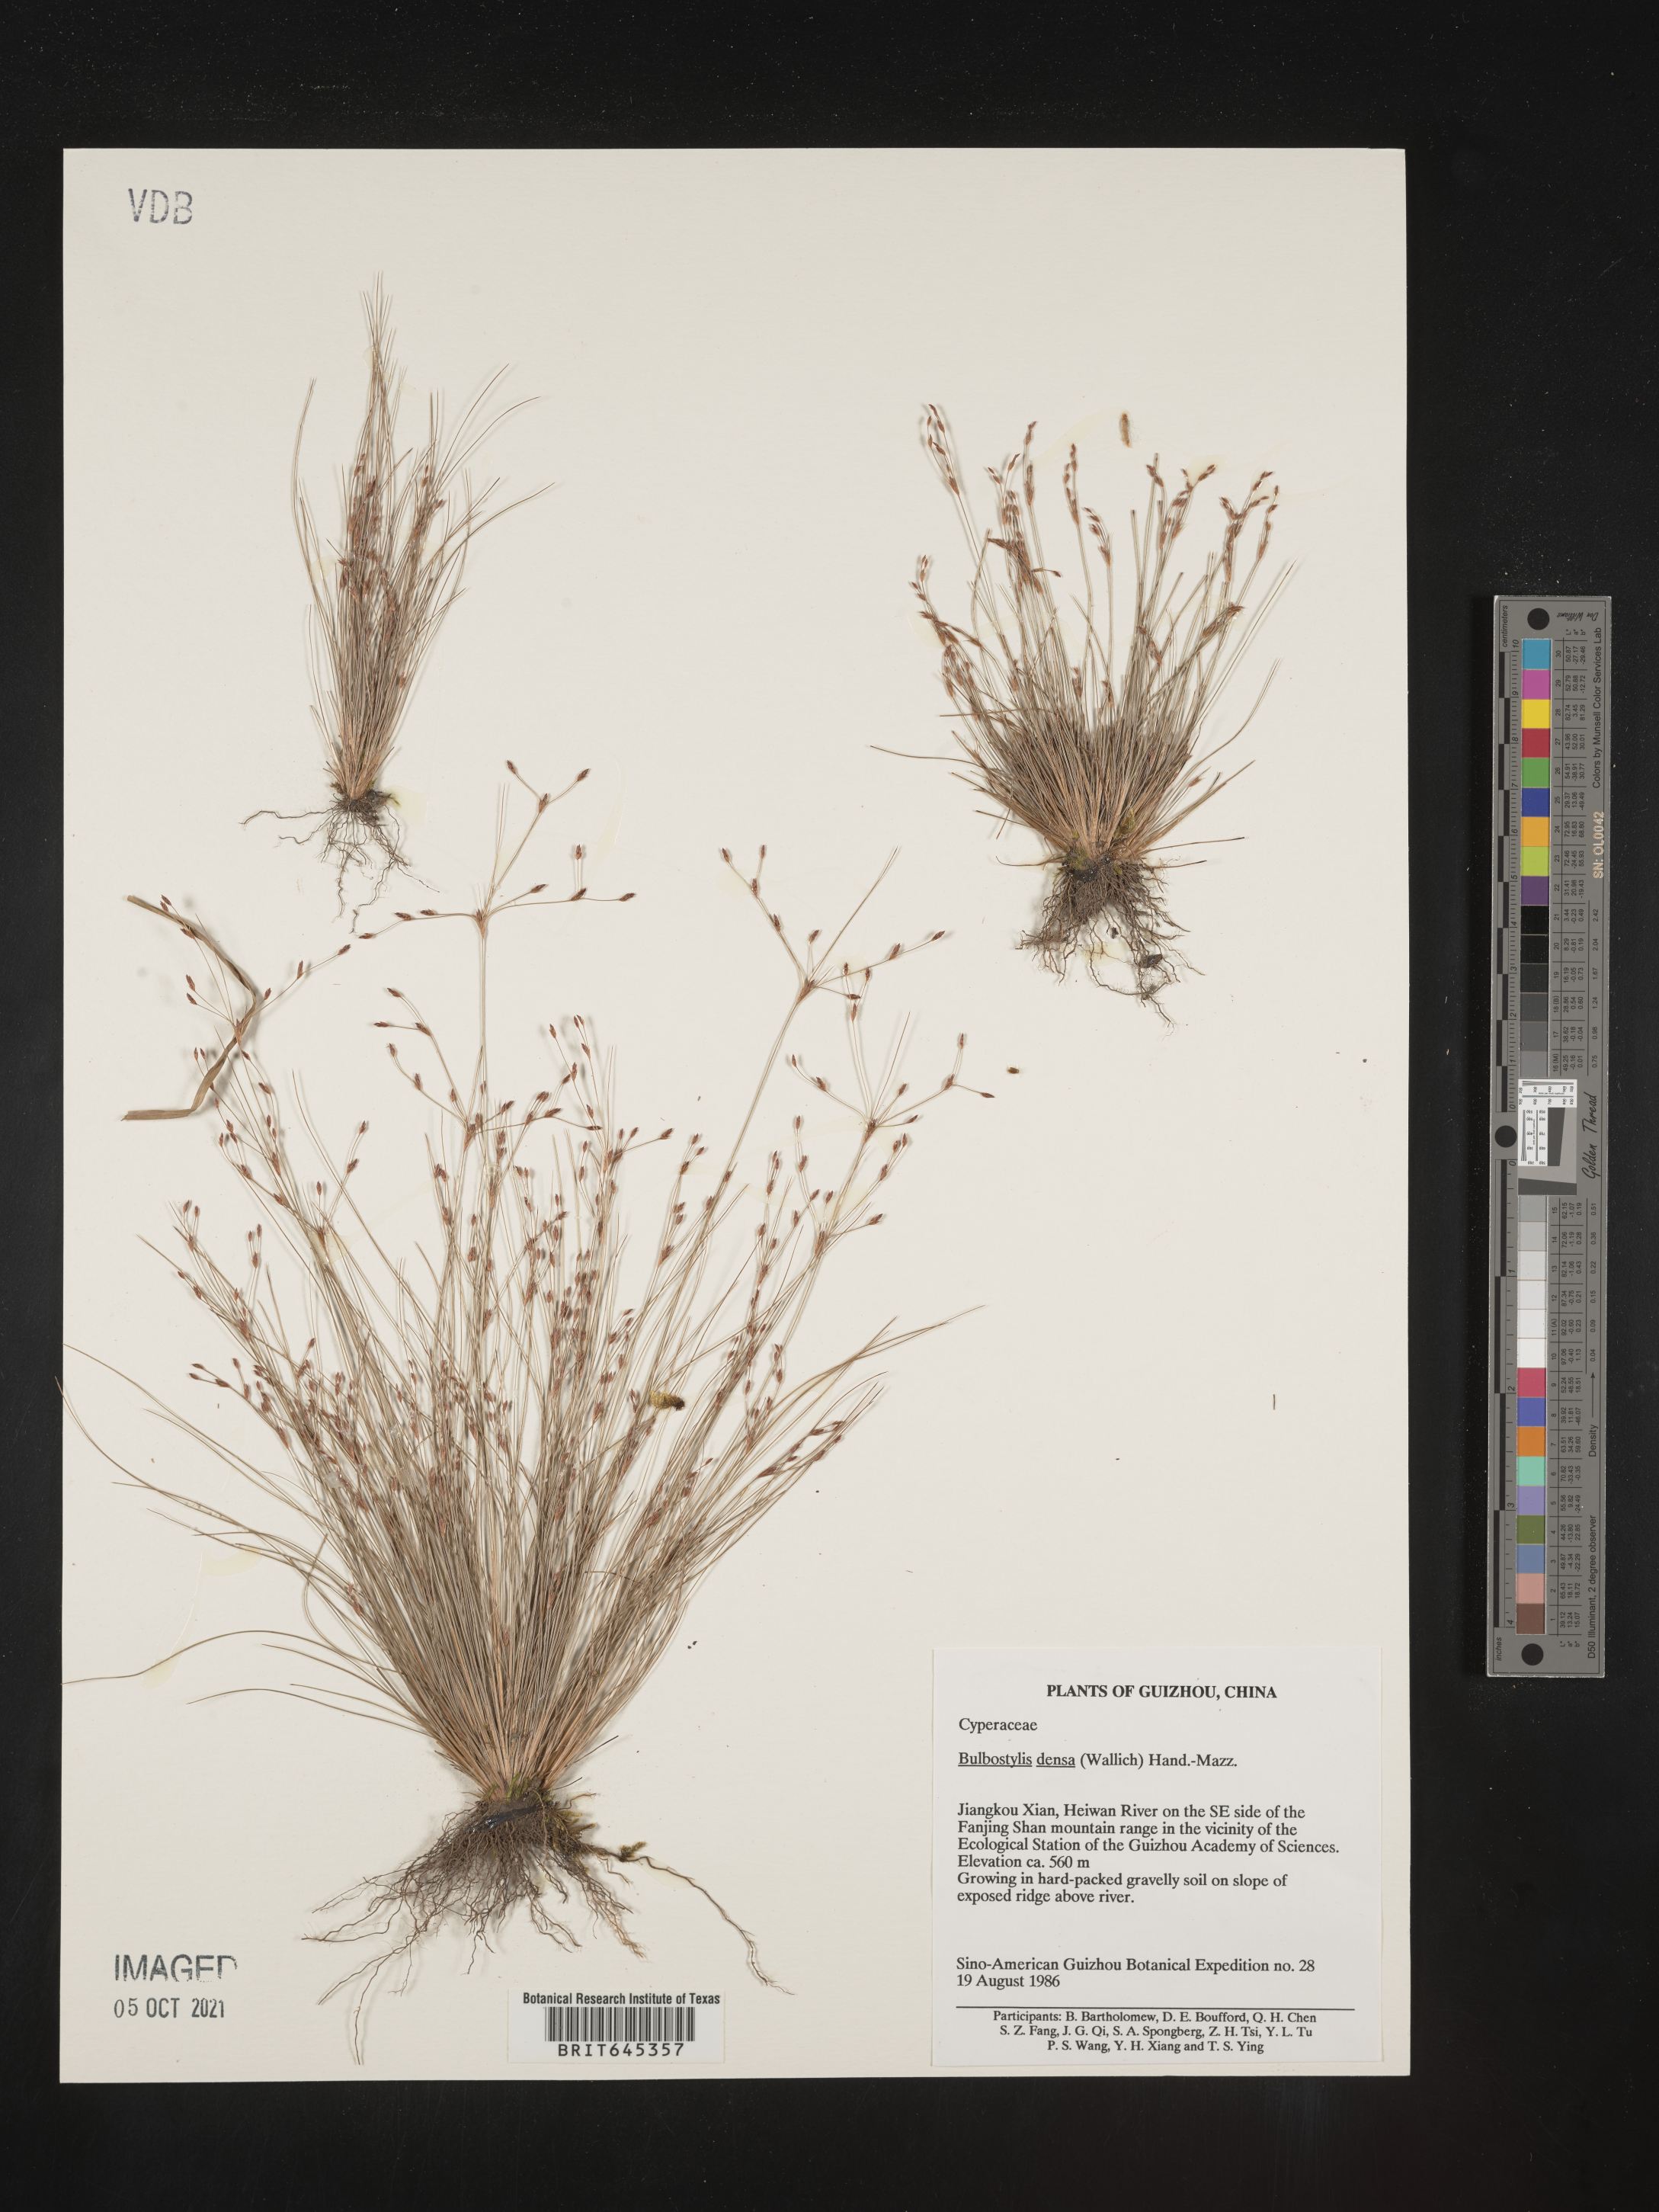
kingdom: Plantae
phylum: Tracheophyta
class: Liliopsida
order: Poales
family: Cyperaceae
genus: Bulbostylis
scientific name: Bulbostylis densa
